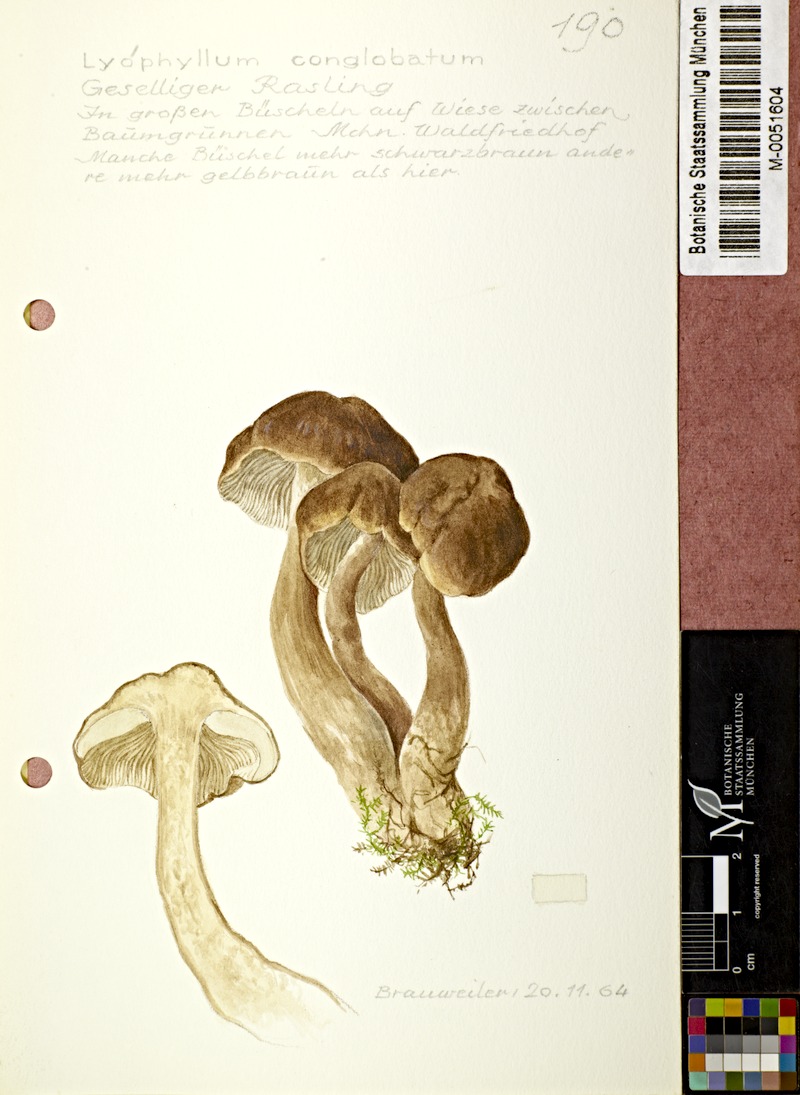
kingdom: Fungi
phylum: Basidiomycota
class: Agaricomycetes
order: Agaricales
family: Lyophyllaceae
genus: Lyophyllum
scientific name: Lyophyllum decastes
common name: Clustered domecap
